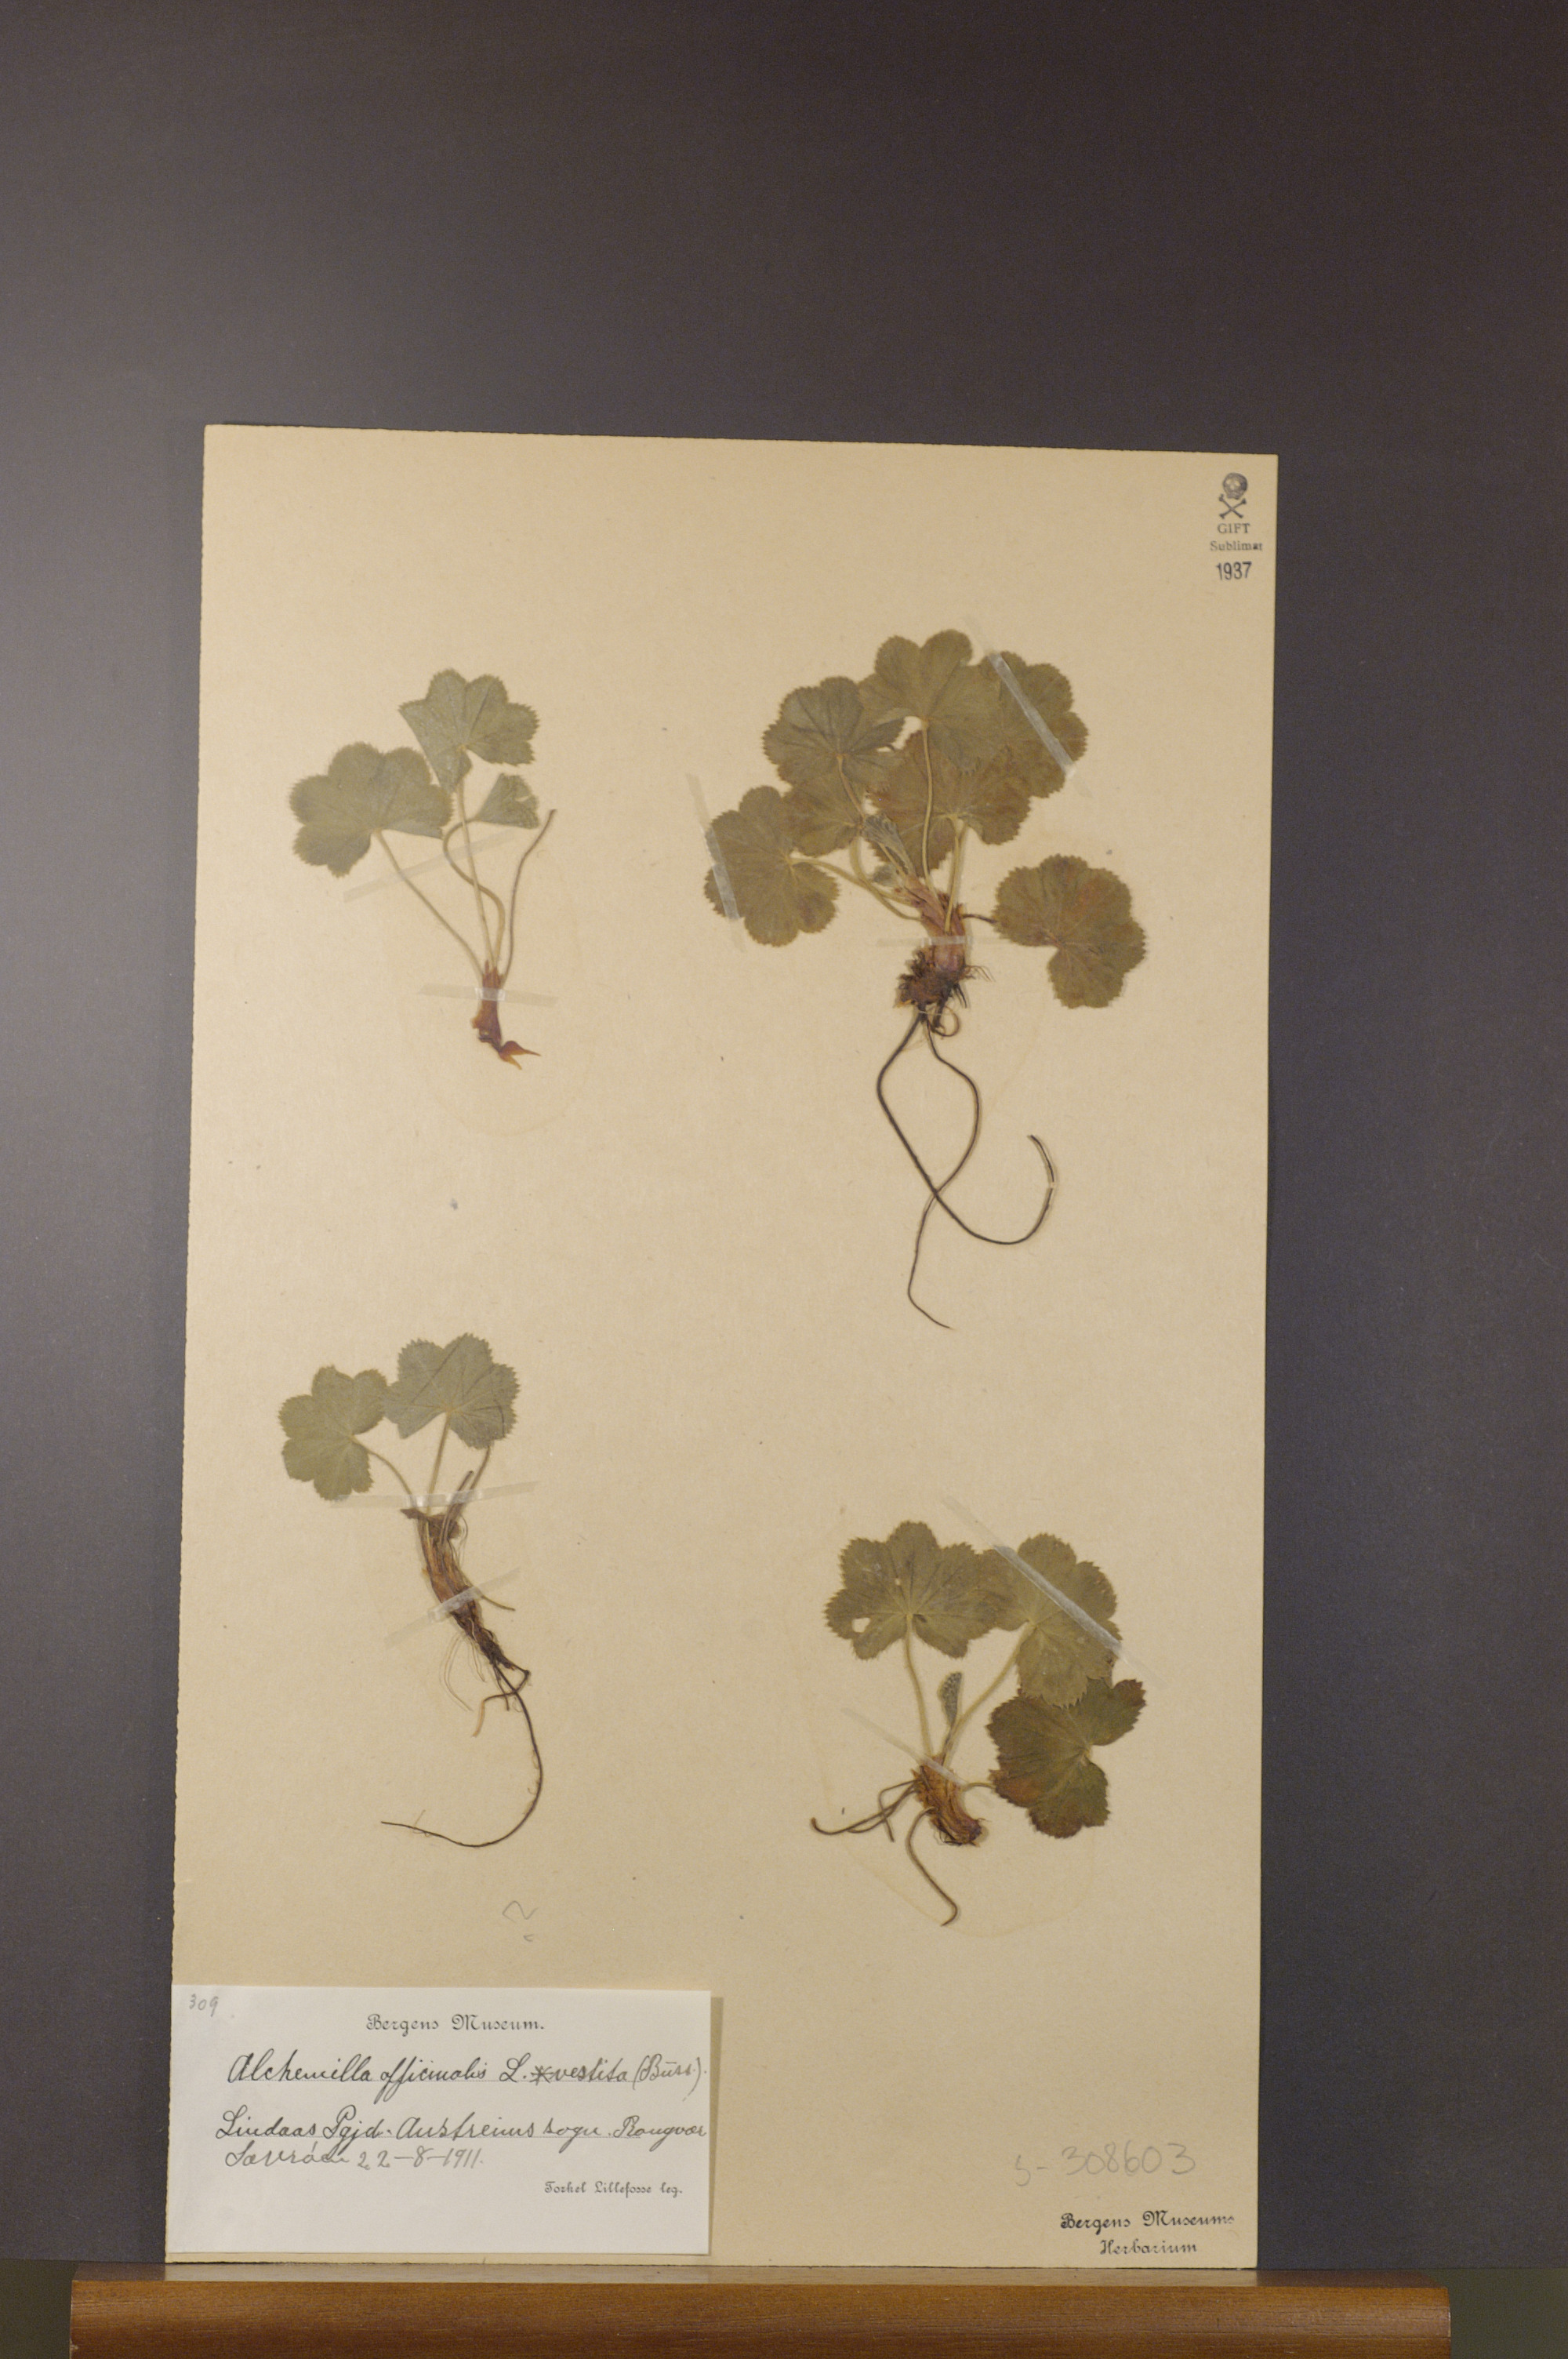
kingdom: Plantae
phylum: Tracheophyta
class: Magnoliopsida
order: Rosales
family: Rosaceae
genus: Alchemilla
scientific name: Alchemilla filicaulis
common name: Hairy lady's-mantle
